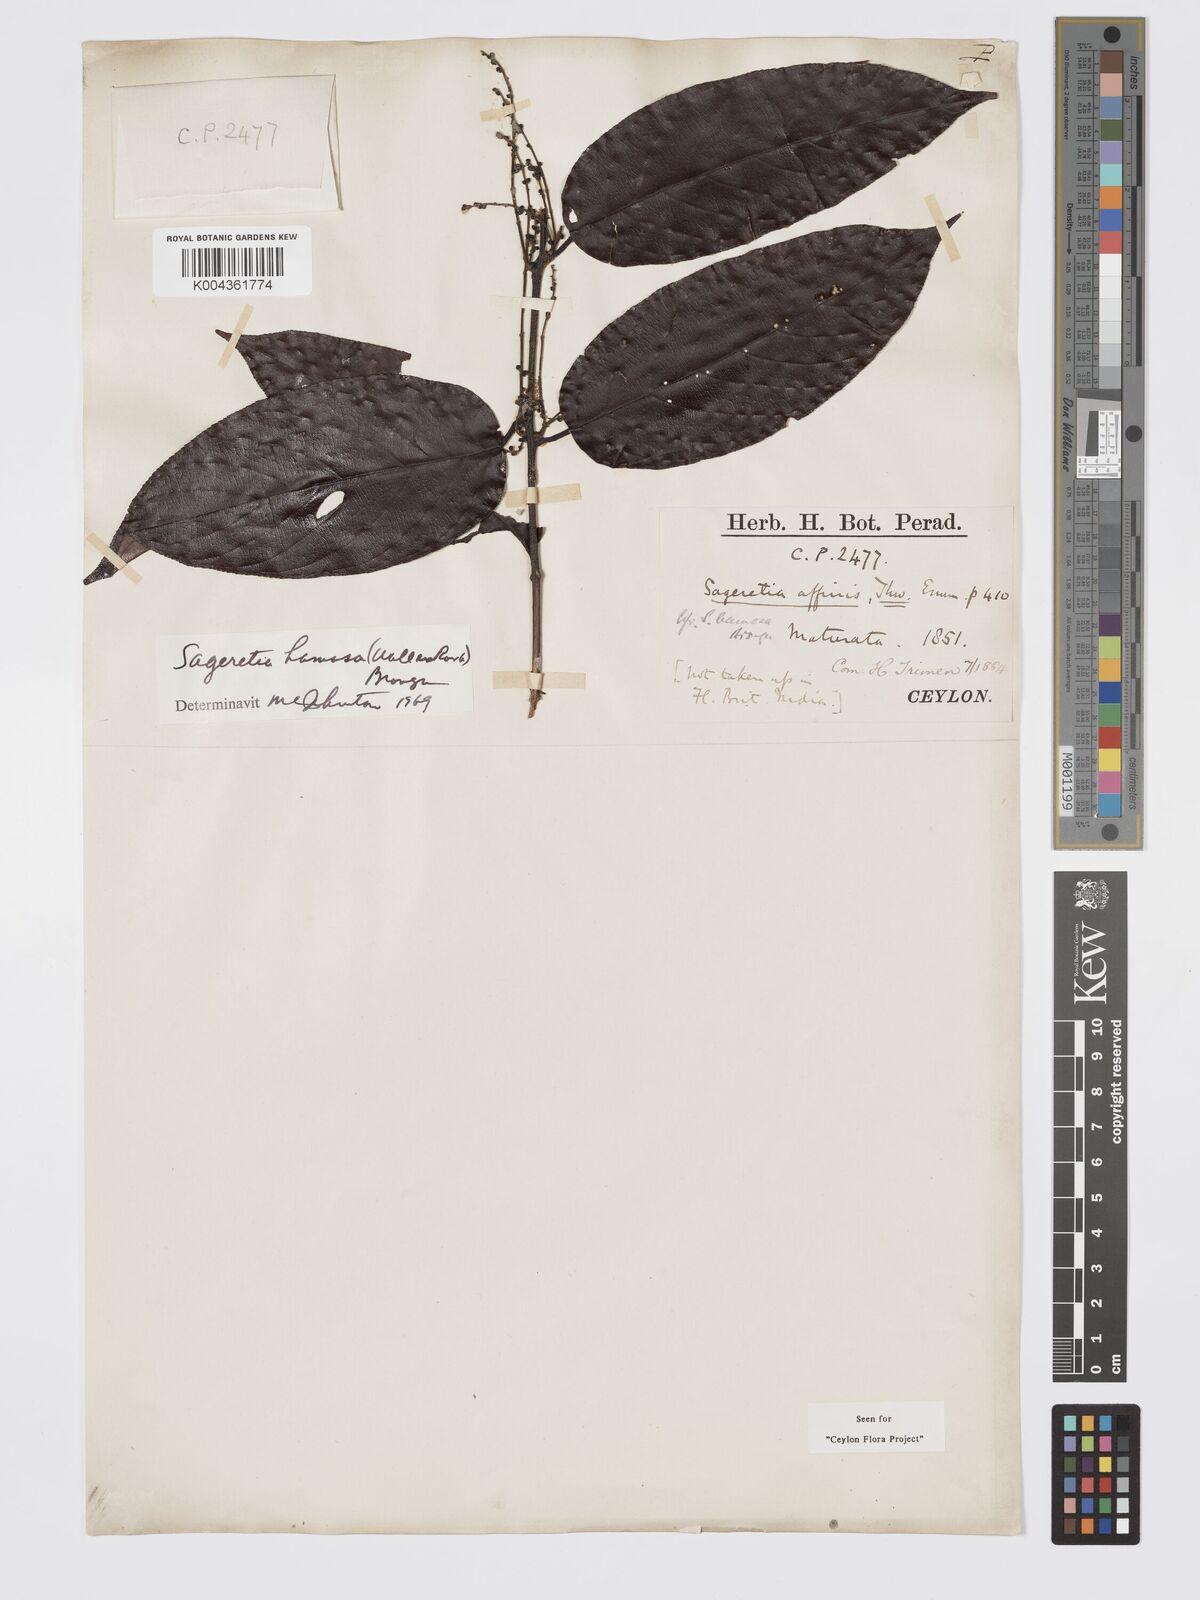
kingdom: Plantae
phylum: Tracheophyta
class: Magnoliopsida
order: Rosales
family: Rhamnaceae
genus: Sageretia
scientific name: Sageretia hamosa
